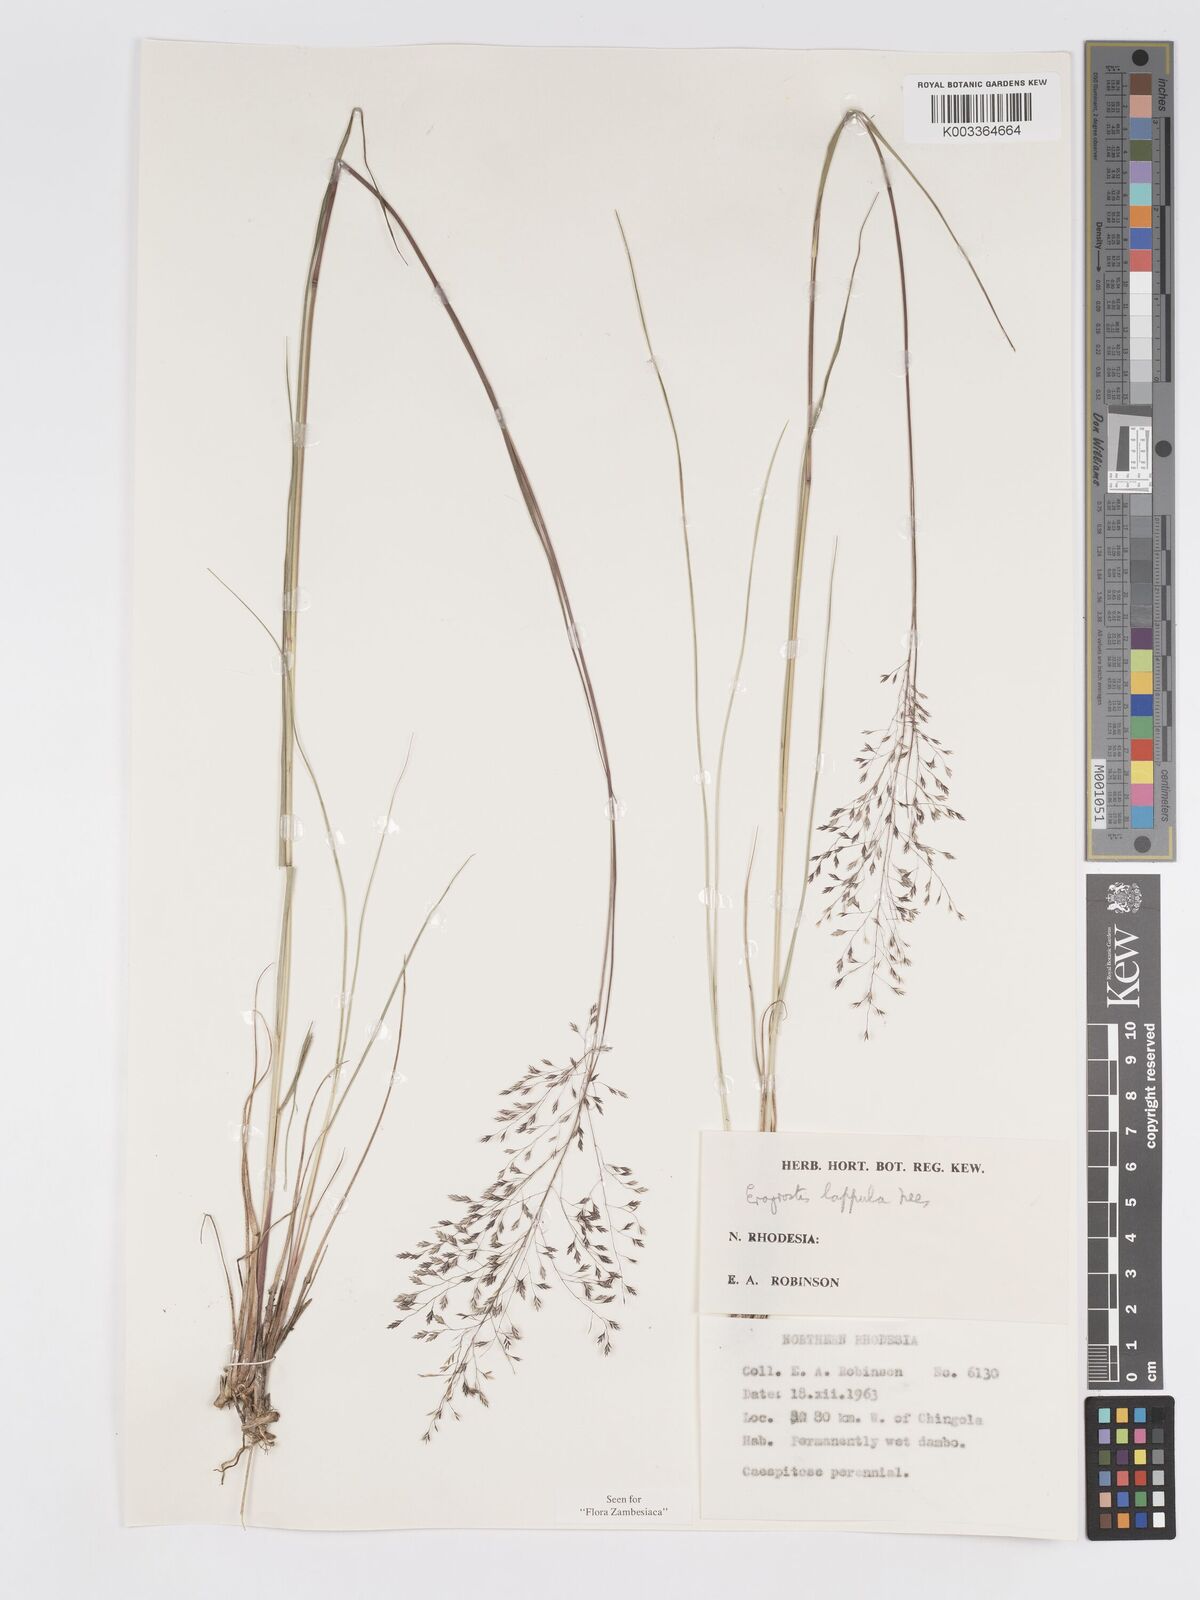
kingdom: Plantae
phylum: Tracheophyta
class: Liliopsida
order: Poales
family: Poaceae
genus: Eragrostis
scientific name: Eragrostis lappula
